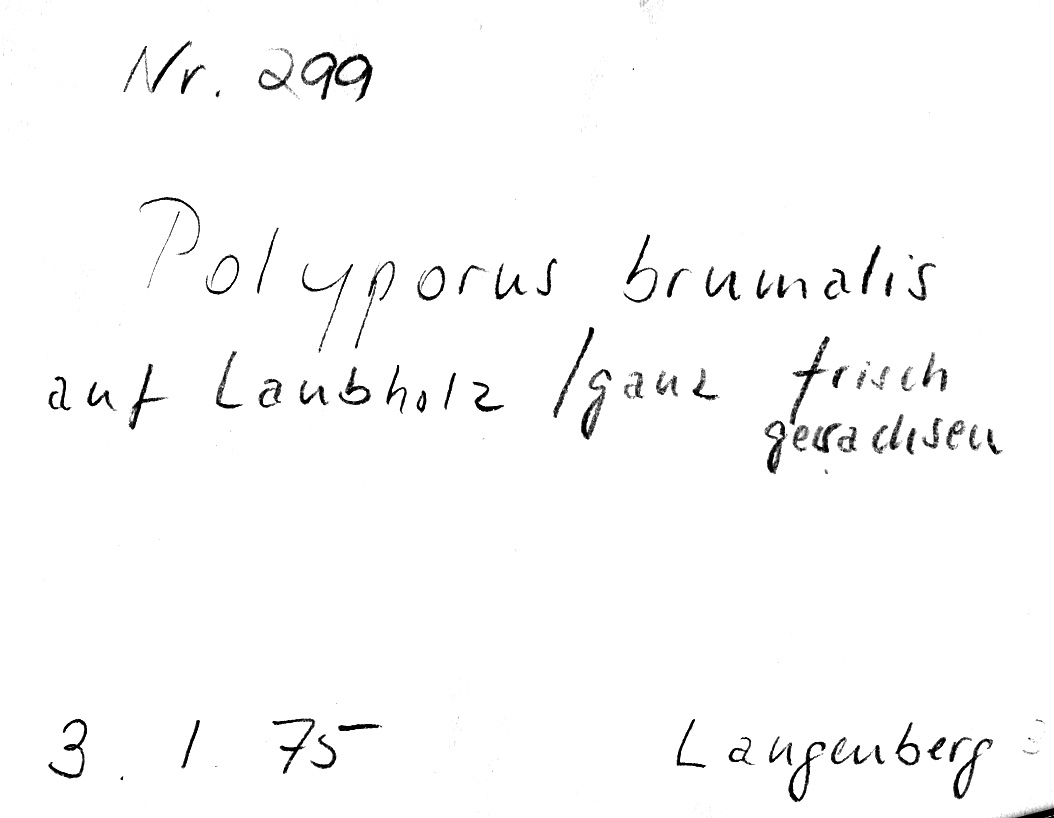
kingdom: Fungi
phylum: Basidiomycota
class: Agaricomycetes
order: Polyporales
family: Polyporaceae
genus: Lentinus
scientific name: Lentinus brumalis
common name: Winter polypore
